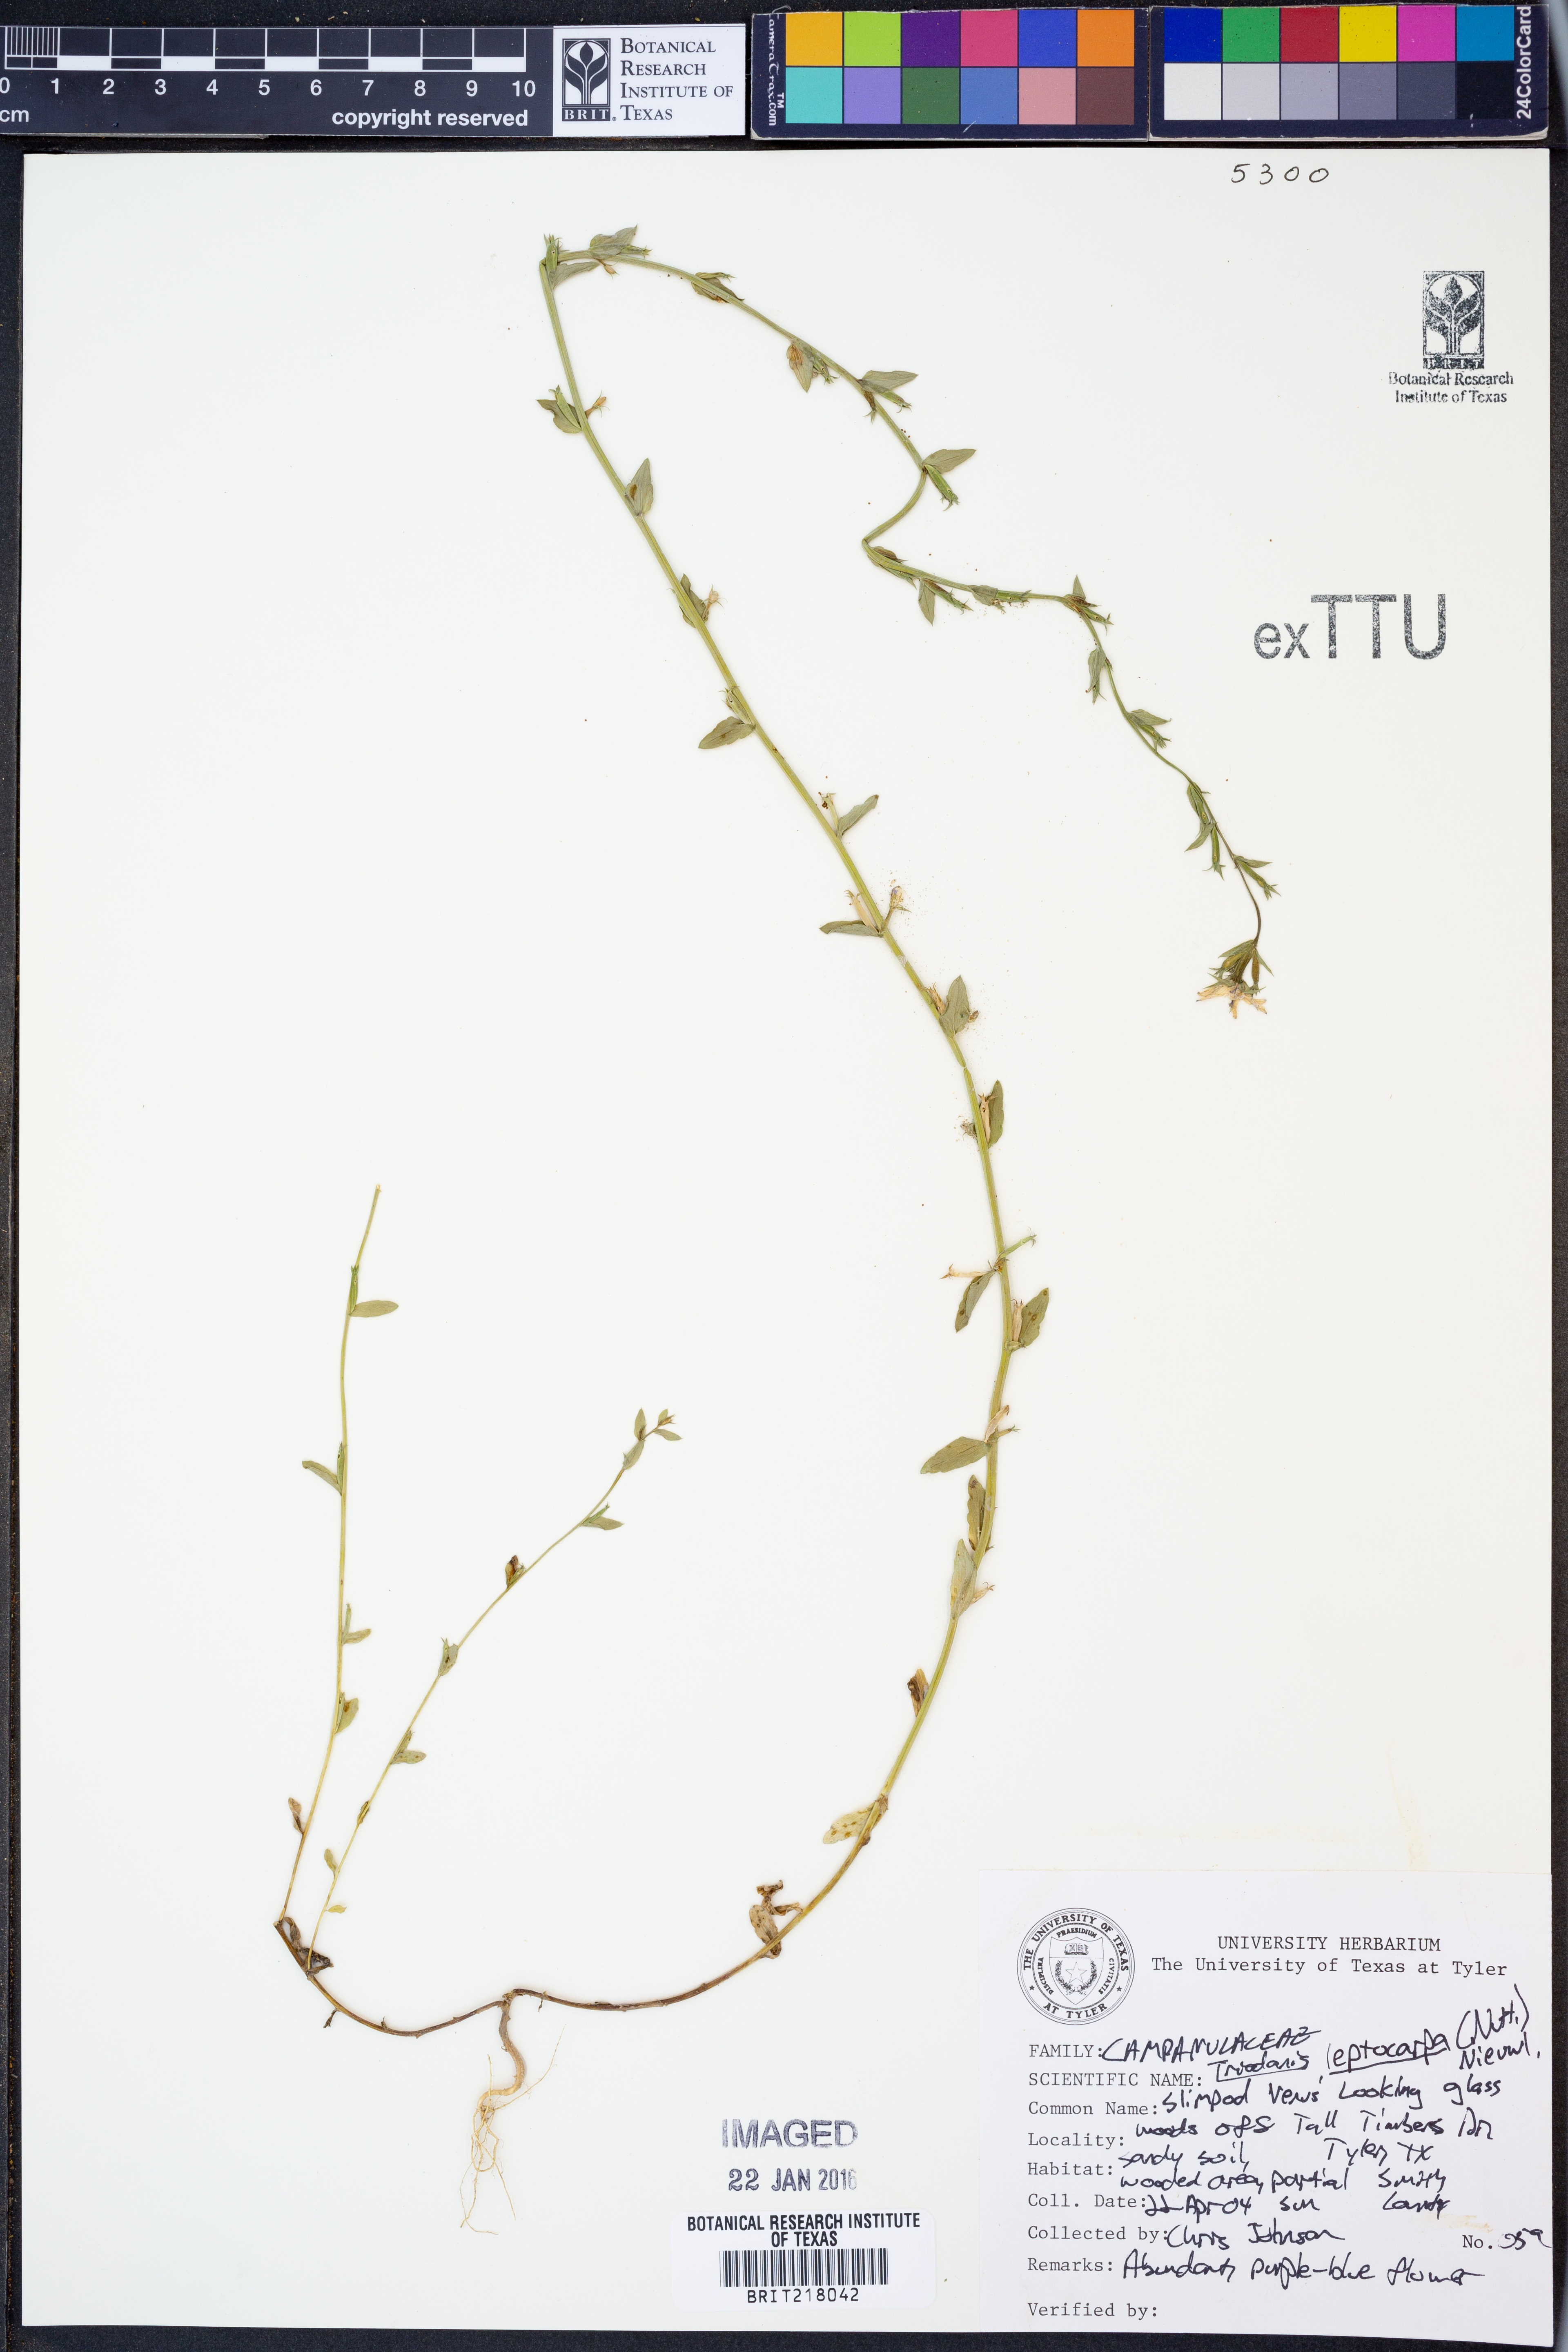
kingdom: Plantae
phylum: Tracheophyta
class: Magnoliopsida
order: Asterales
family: Campanulaceae
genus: Triodanis
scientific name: Triodanis leptocarpa
